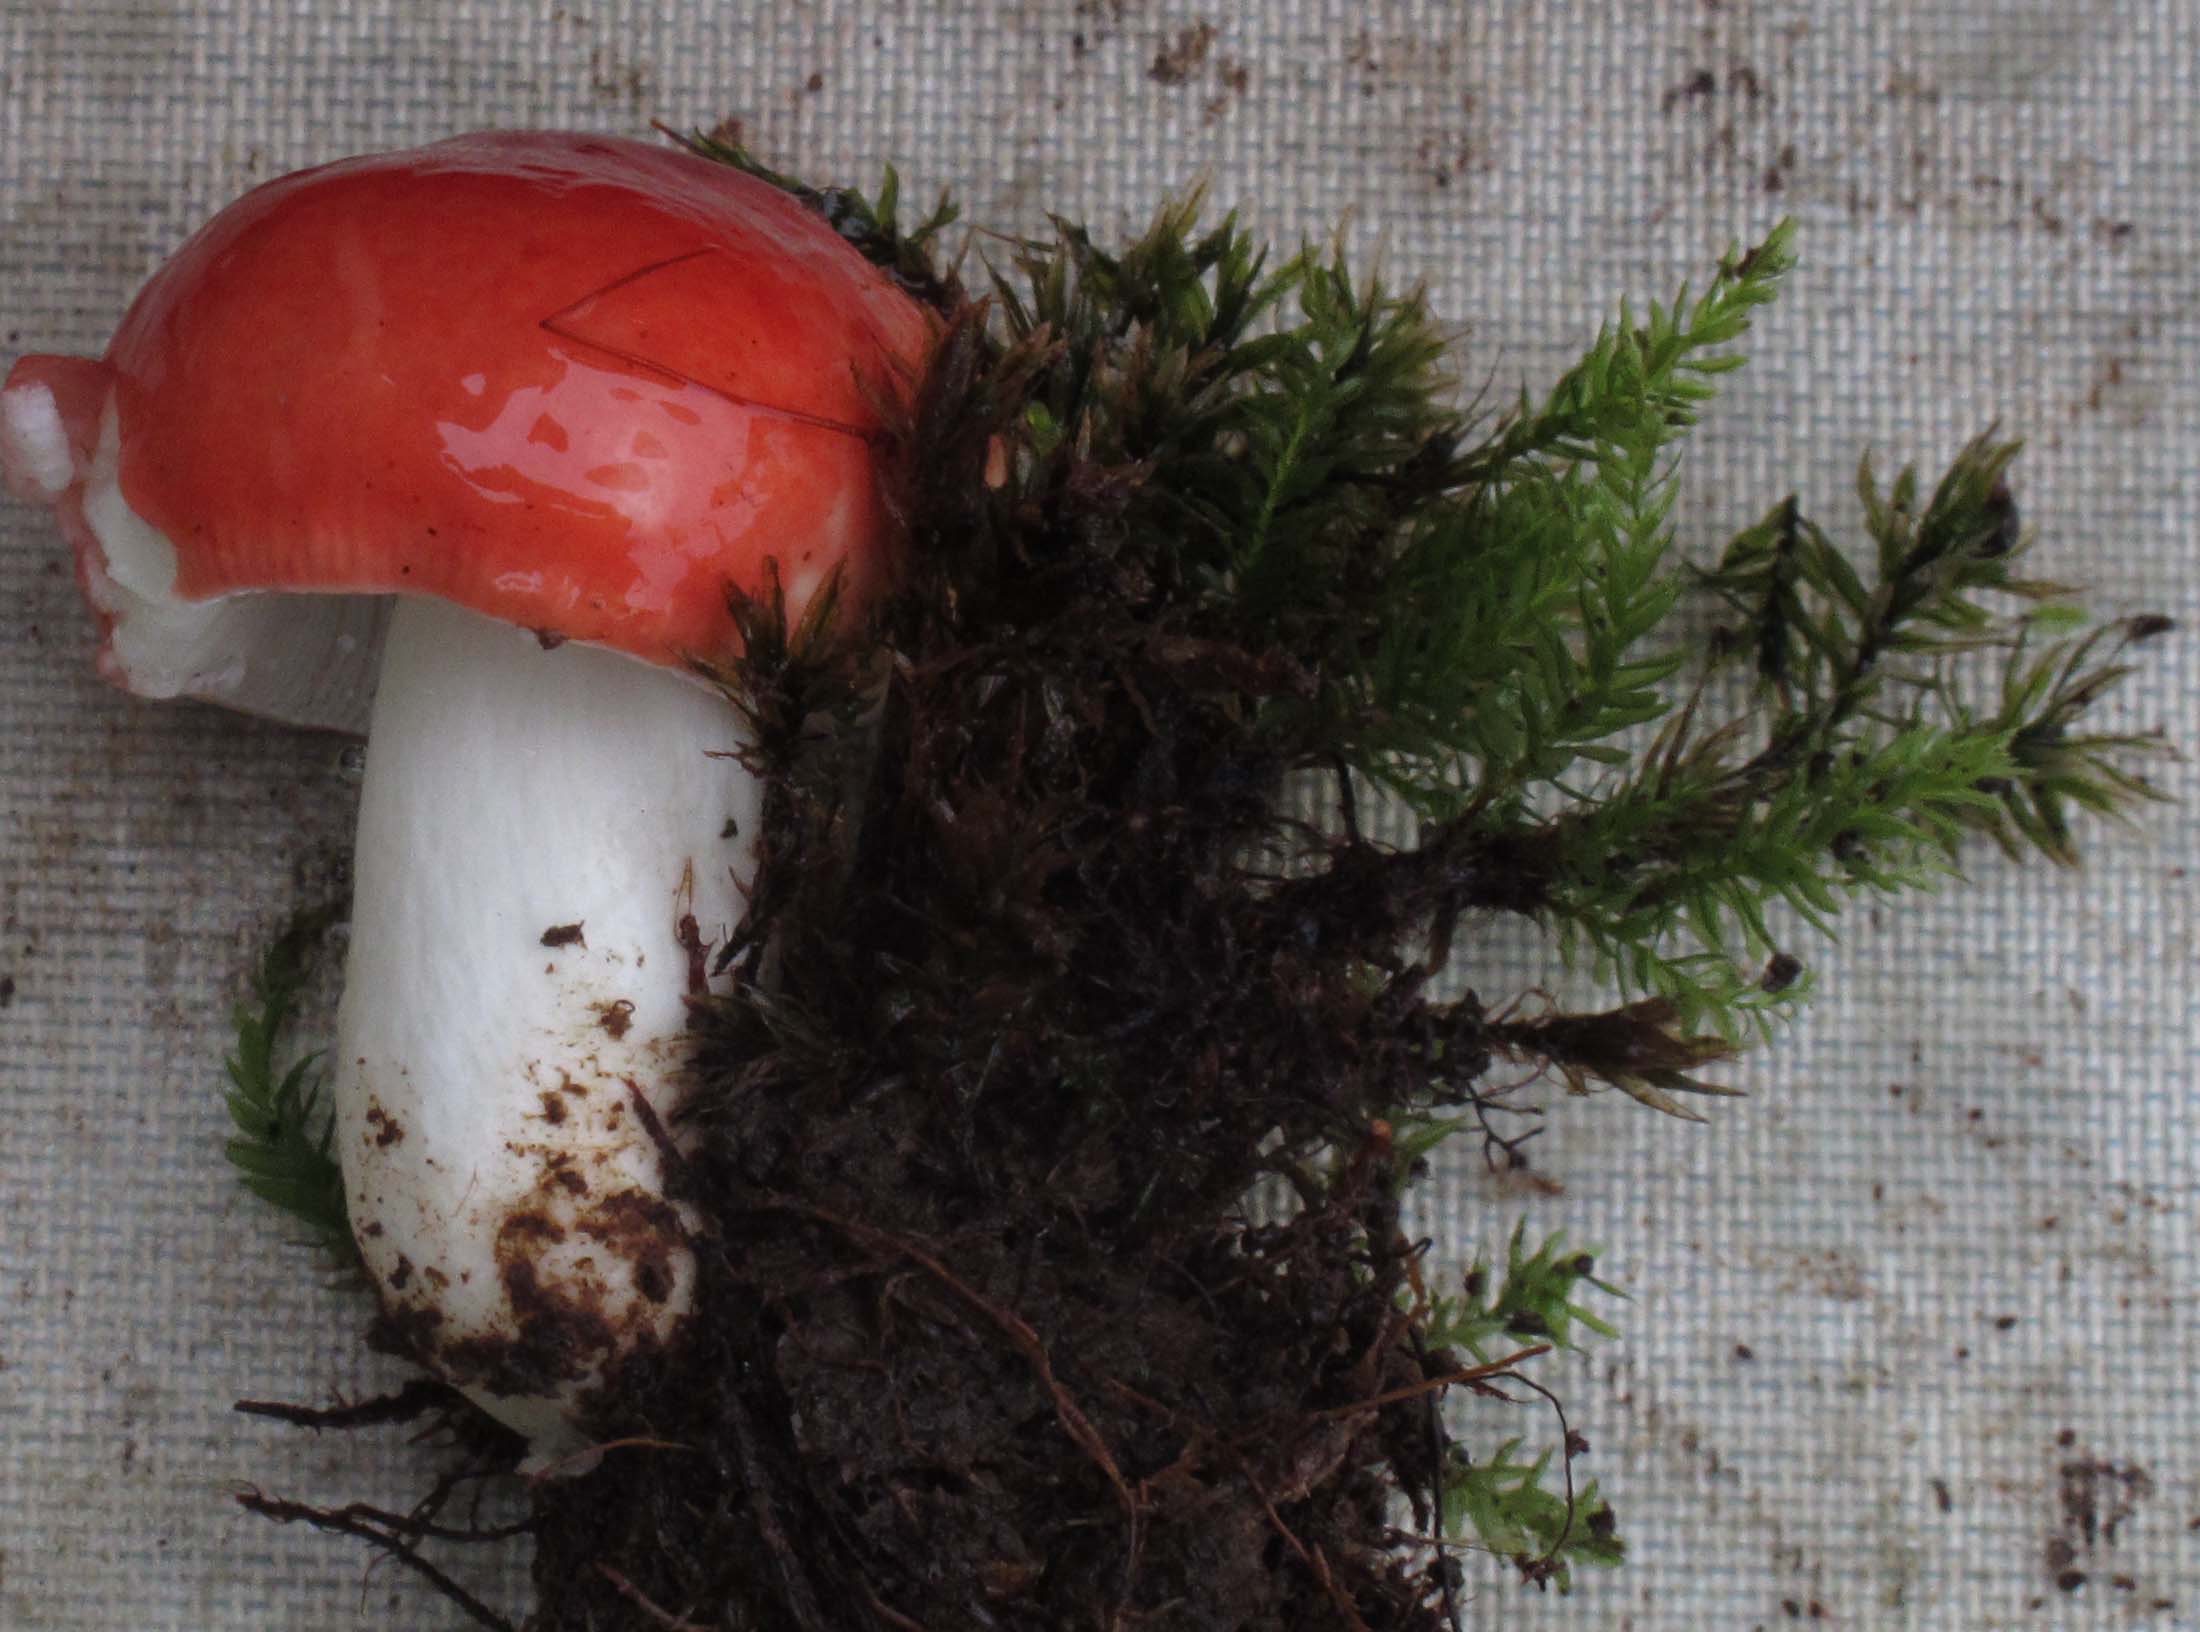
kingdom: Fungi
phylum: Basidiomycota
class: Agaricomycetes
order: Russulales
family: Russulaceae
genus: Russula
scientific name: Russula emetica
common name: stor gift-skørhat
